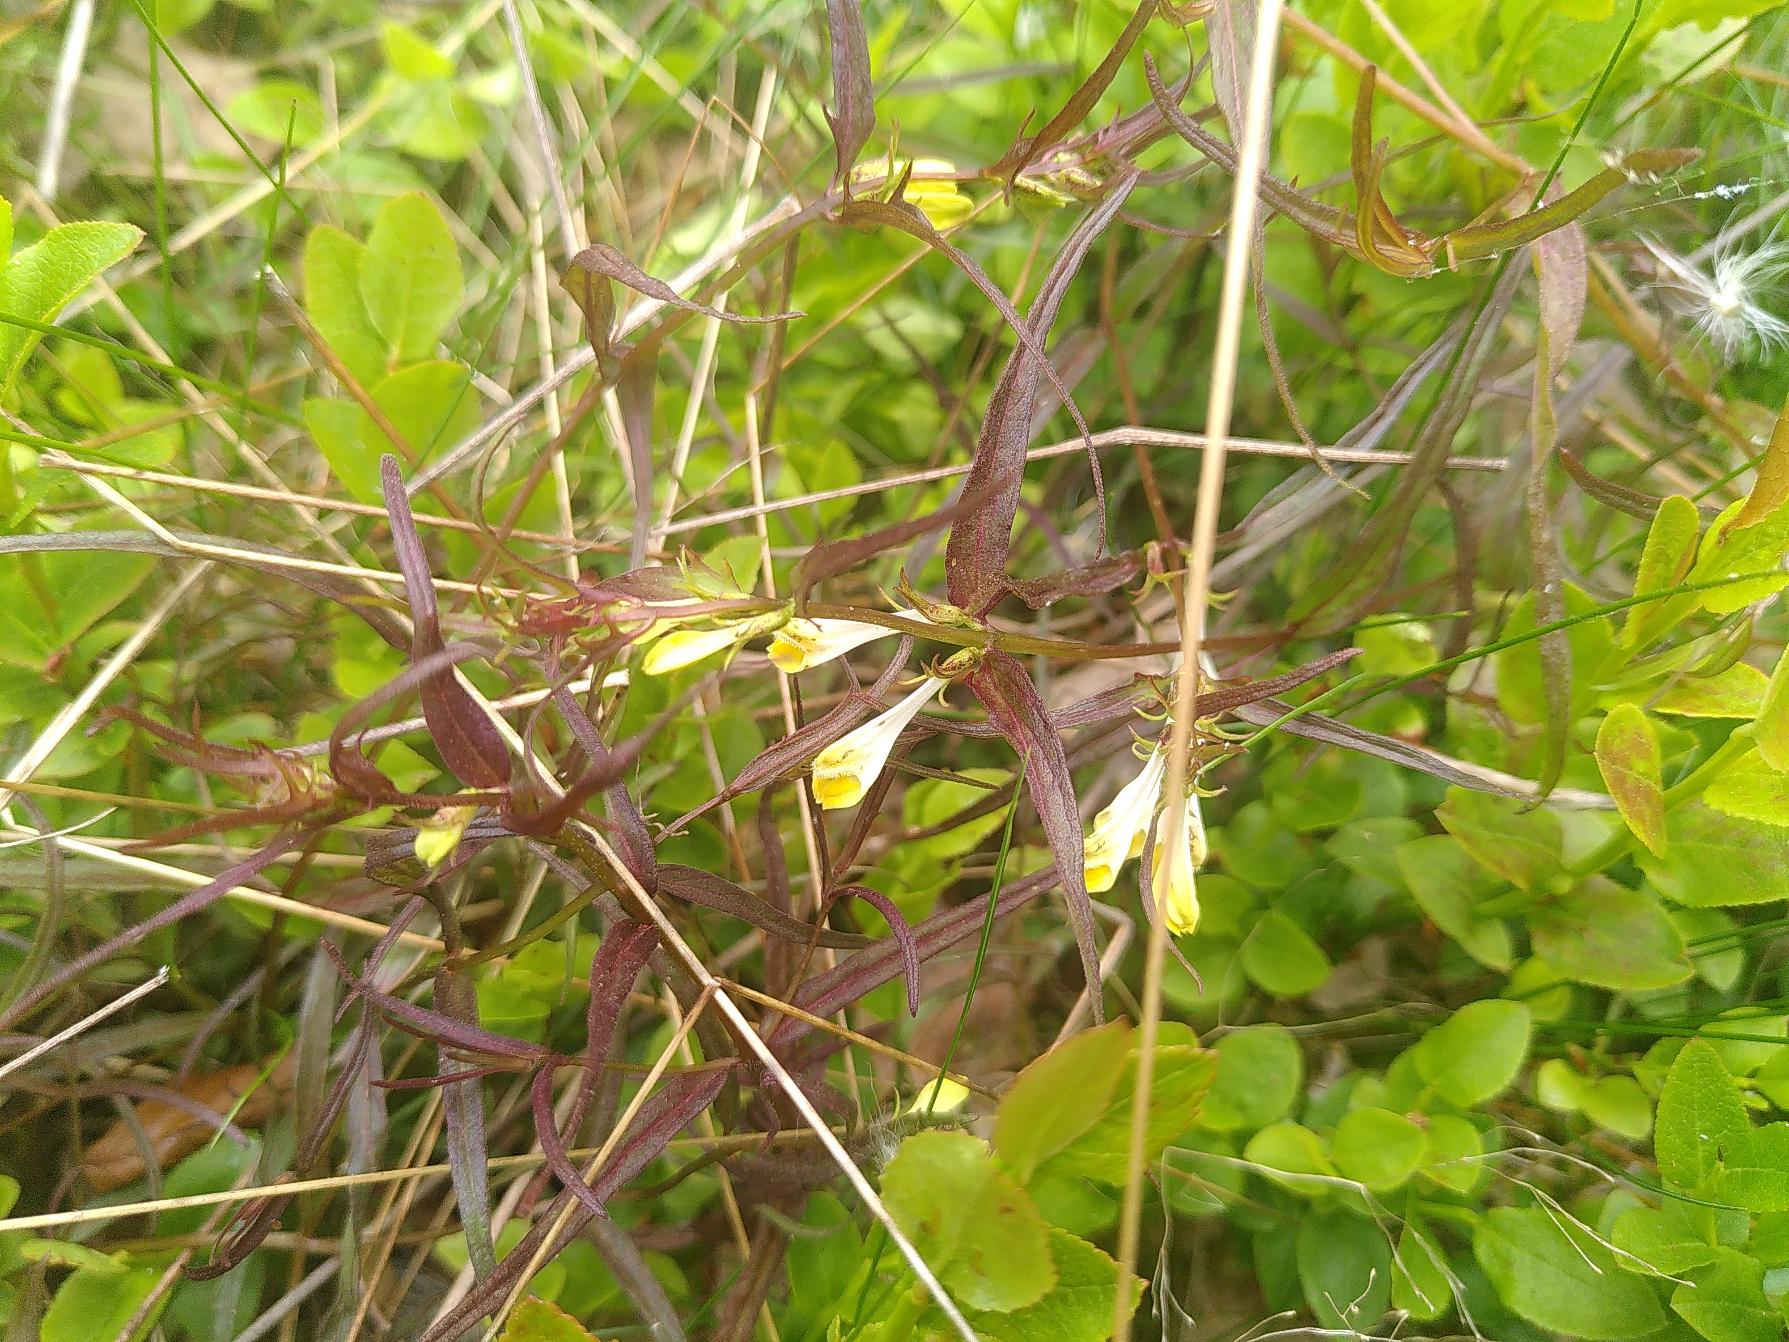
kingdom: Plantae
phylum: Tracheophyta
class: Magnoliopsida
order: Lamiales
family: Orobanchaceae
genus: Melampyrum
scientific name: Melampyrum pratense
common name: Almindelig kohvede
